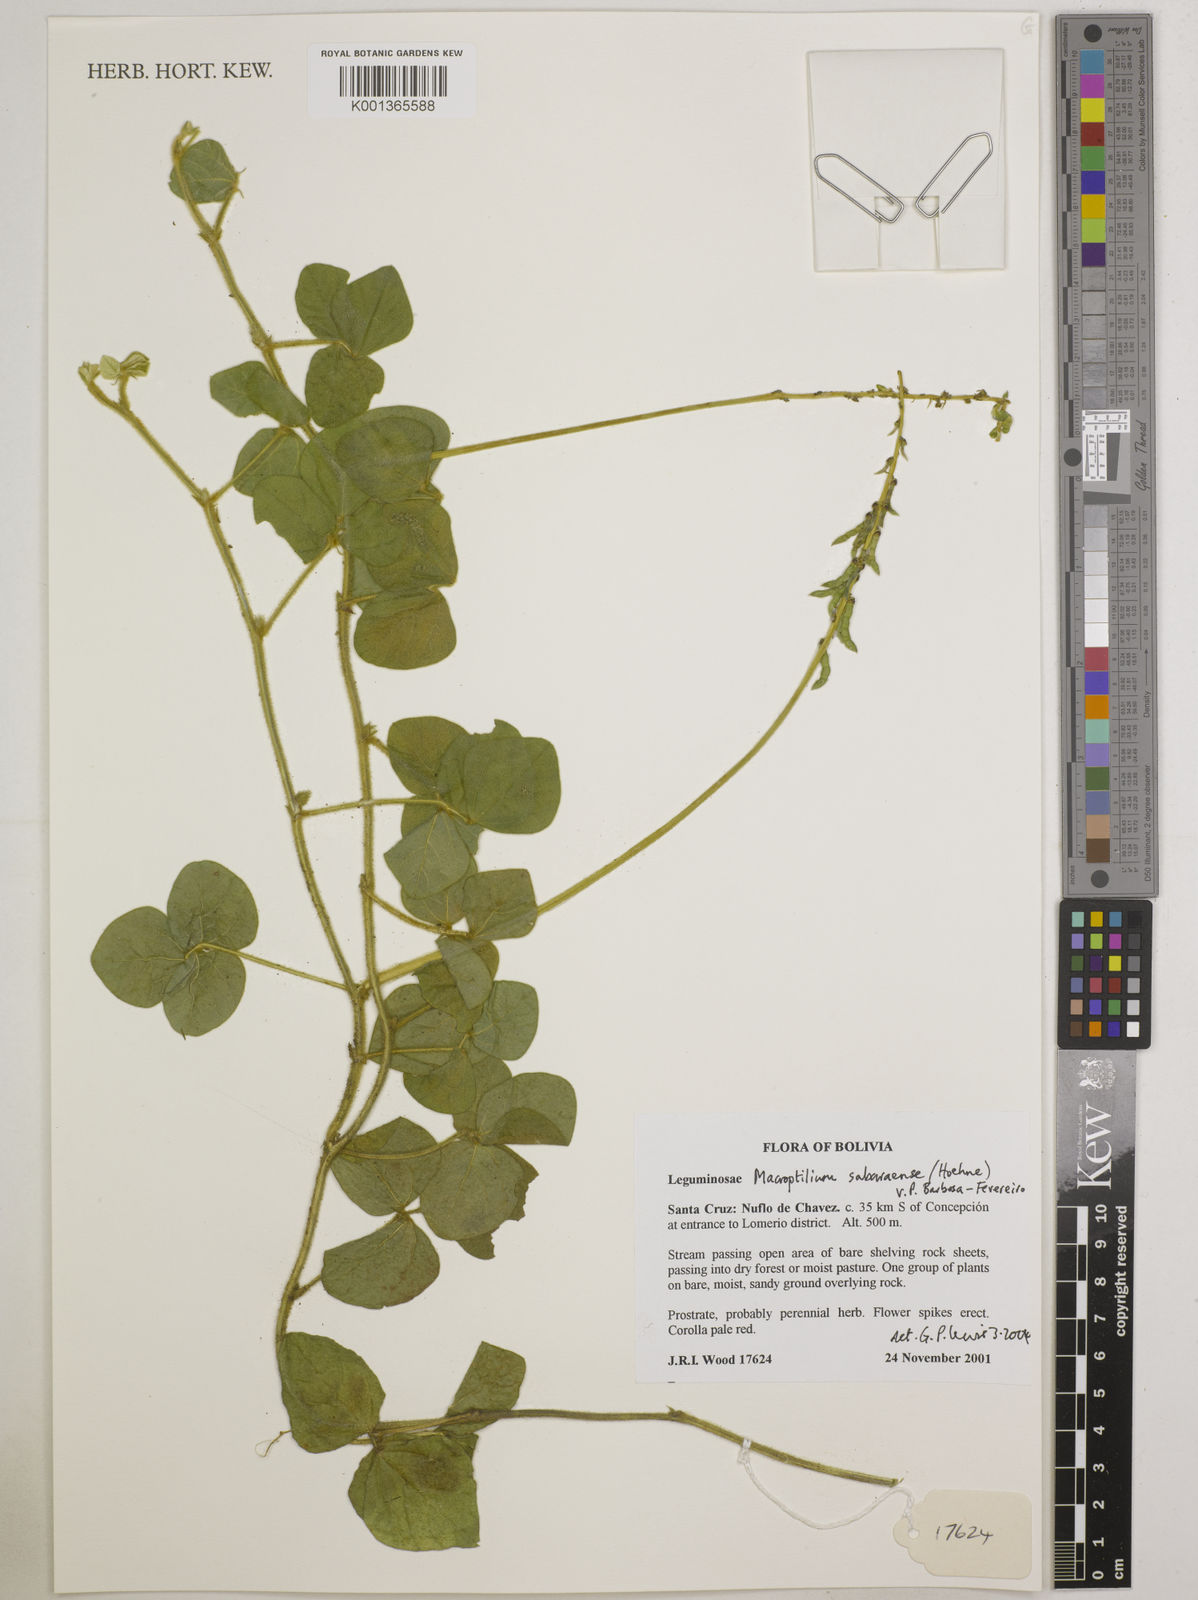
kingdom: Plantae
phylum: Tracheophyta
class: Magnoliopsida
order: Fabales
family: Fabaceae
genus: Macroptilium
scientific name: Macroptilium sabaraense
